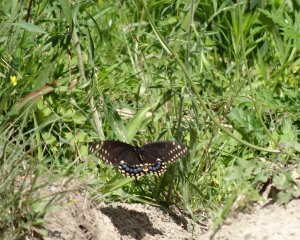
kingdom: Animalia
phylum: Arthropoda
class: Insecta
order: Lepidoptera
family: Papilionidae
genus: Papilio
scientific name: Papilio polyxenes
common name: Black Swallowtail
